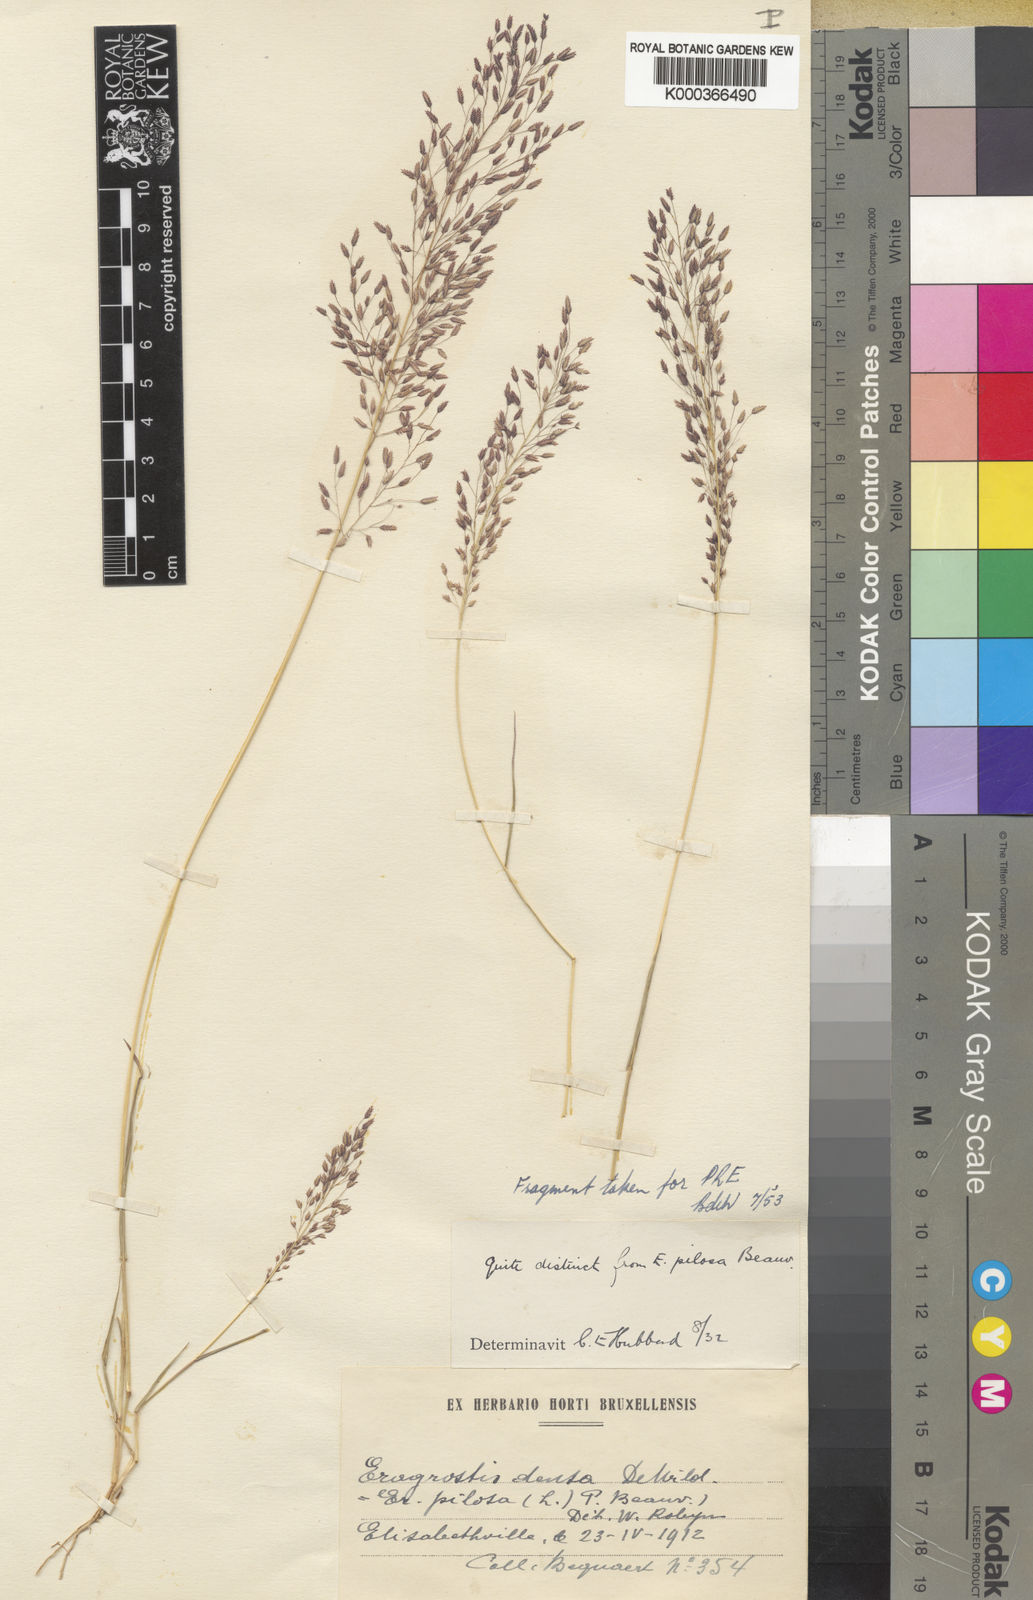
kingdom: Plantae
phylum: Tracheophyta
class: Liliopsida
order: Poales
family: Poaceae
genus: Eragrostis
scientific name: Eragrostis welwitschii
